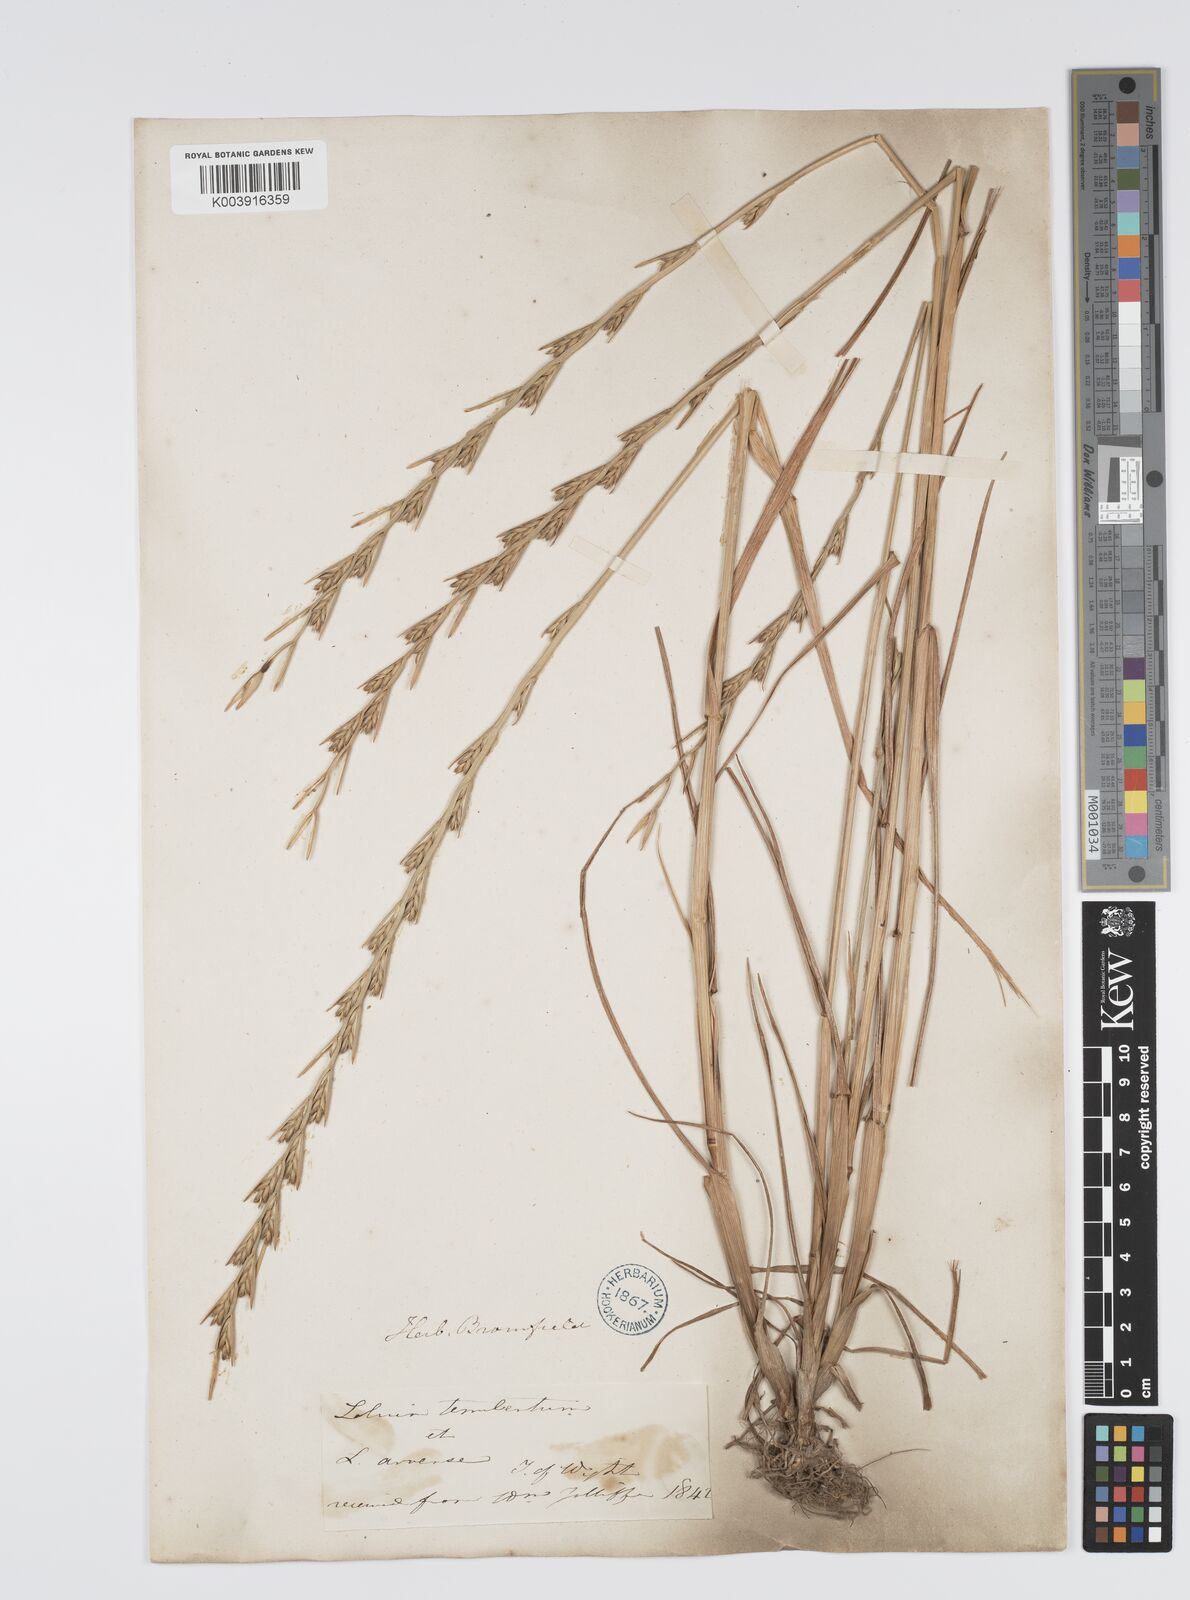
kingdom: Plantae
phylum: Tracheophyta
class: Liliopsida
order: Poales
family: Poaceae
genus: Lolium
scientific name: Lolium temulentum
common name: Darnel
